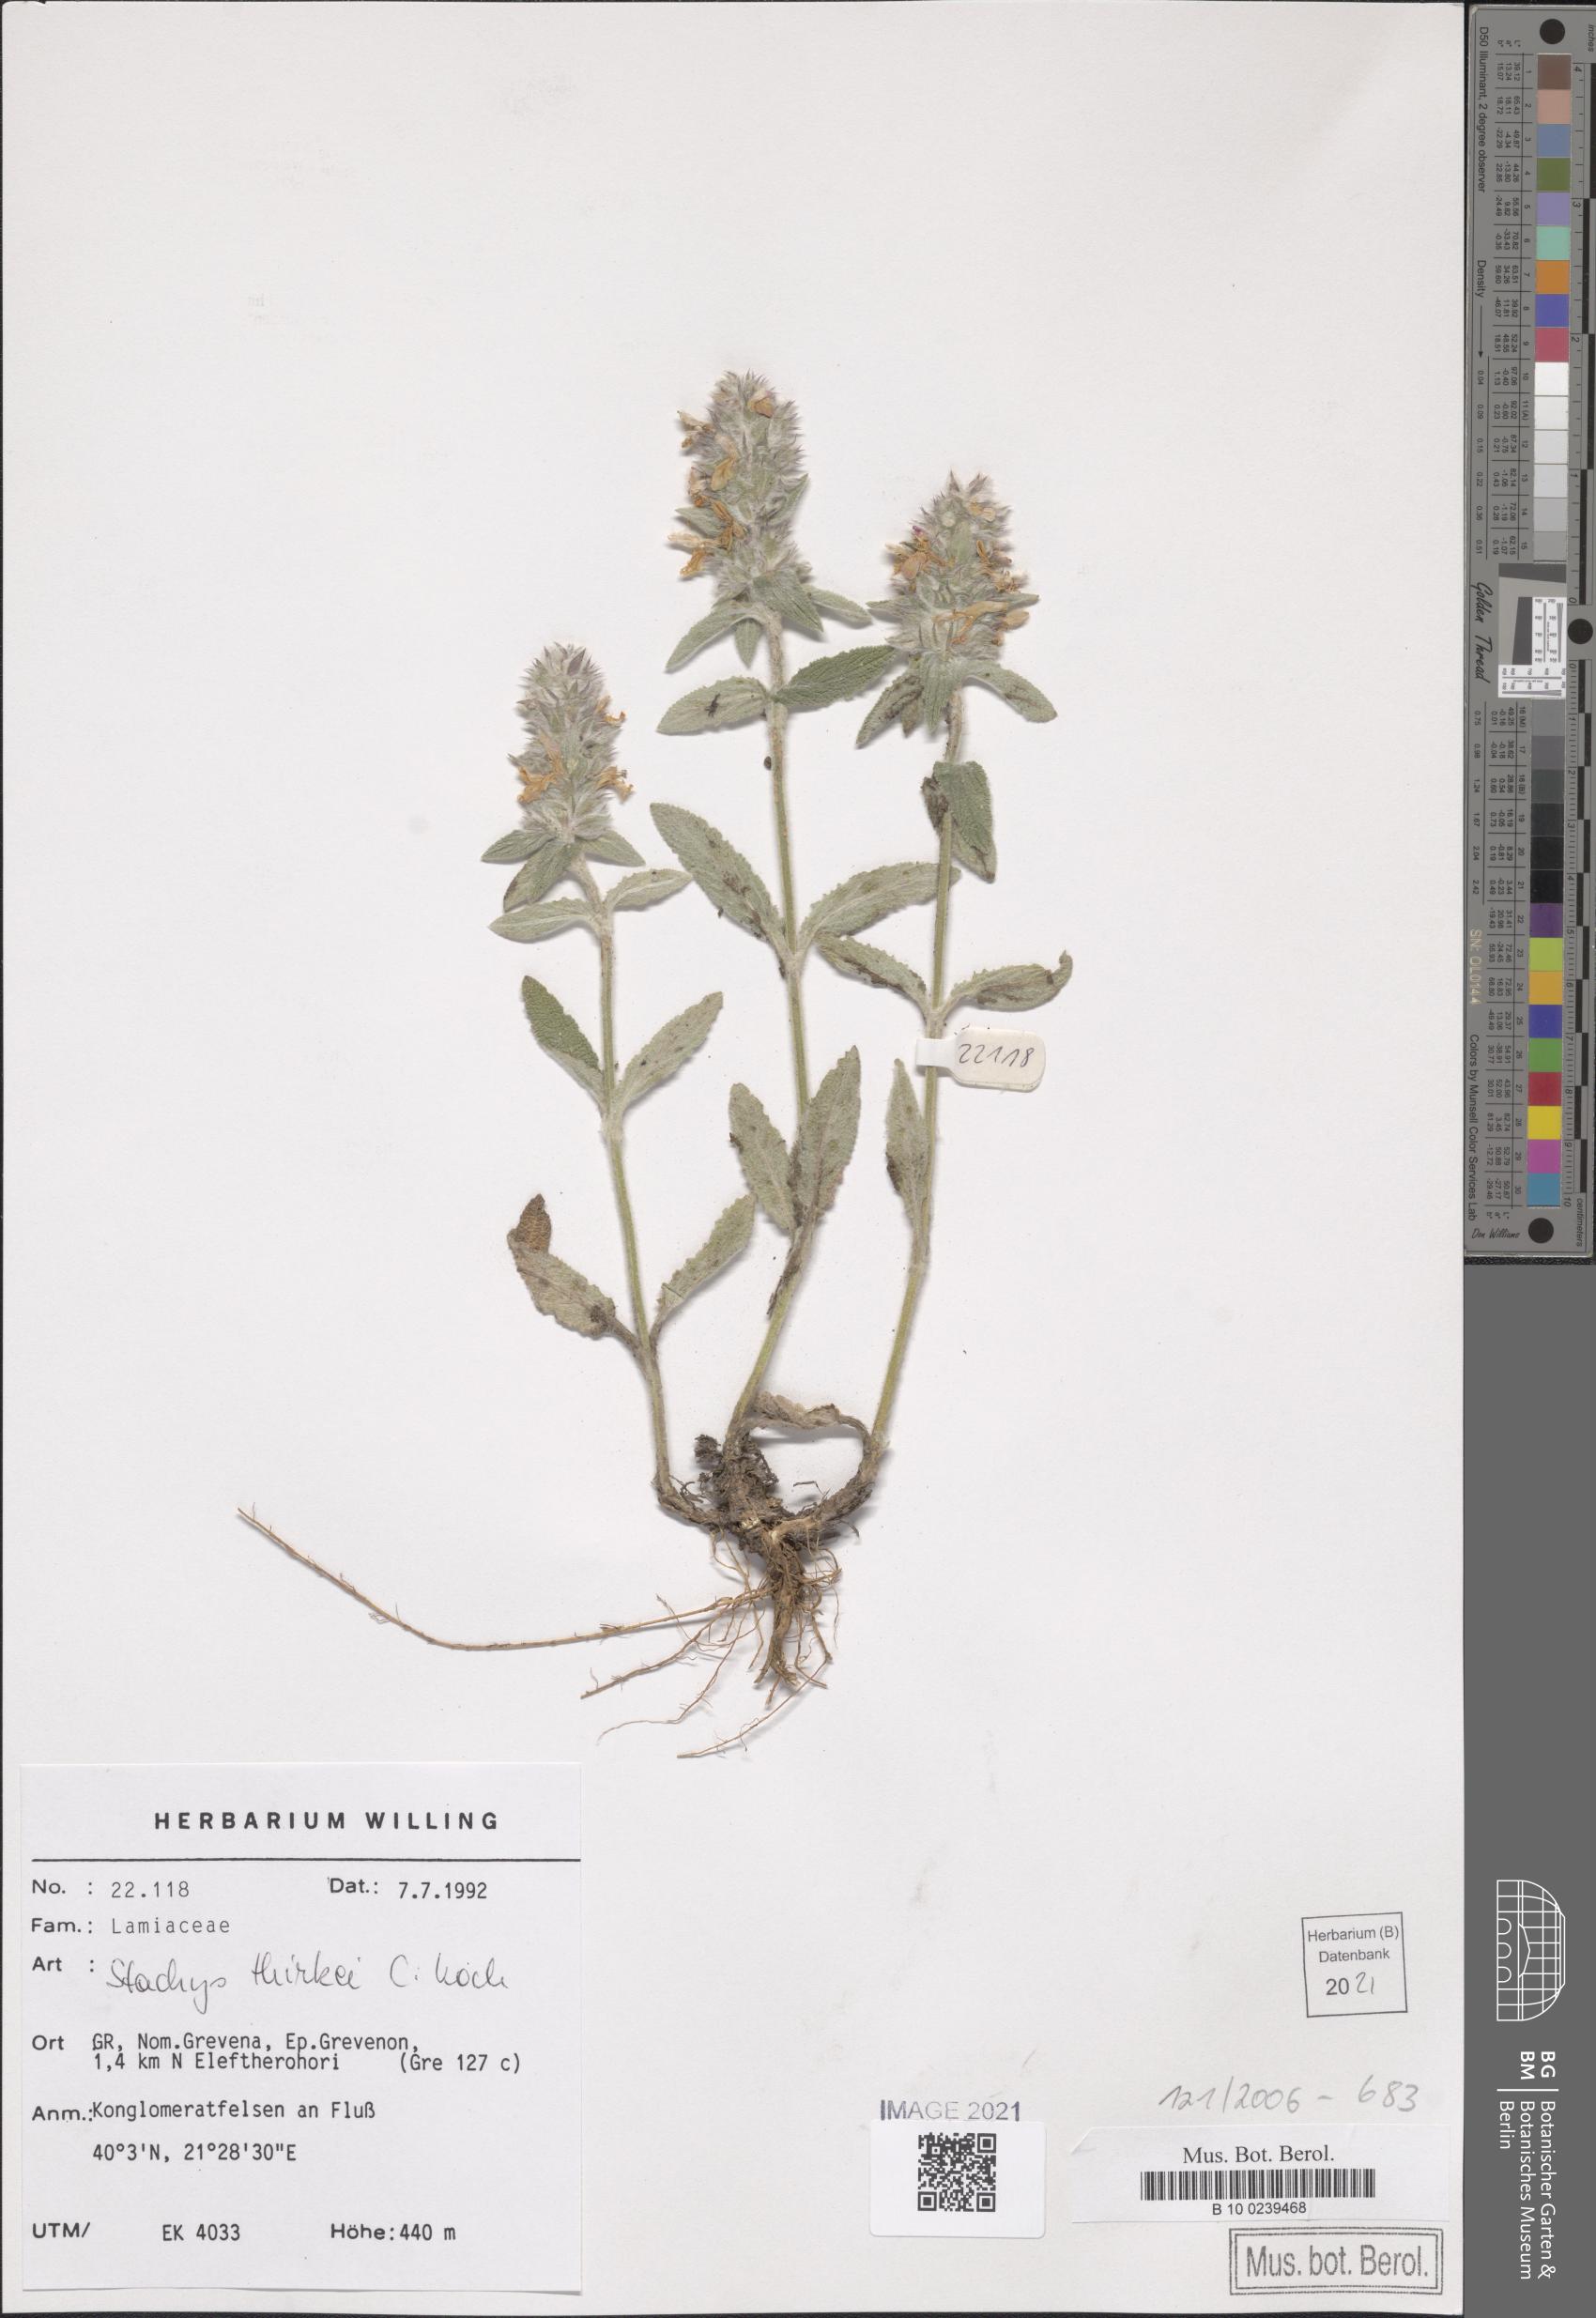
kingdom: Plantae
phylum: Tracheophyta
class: Magnoliopsida
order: Lamiales
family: Lamiaceae
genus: Stachys
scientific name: Stachys thirkei
